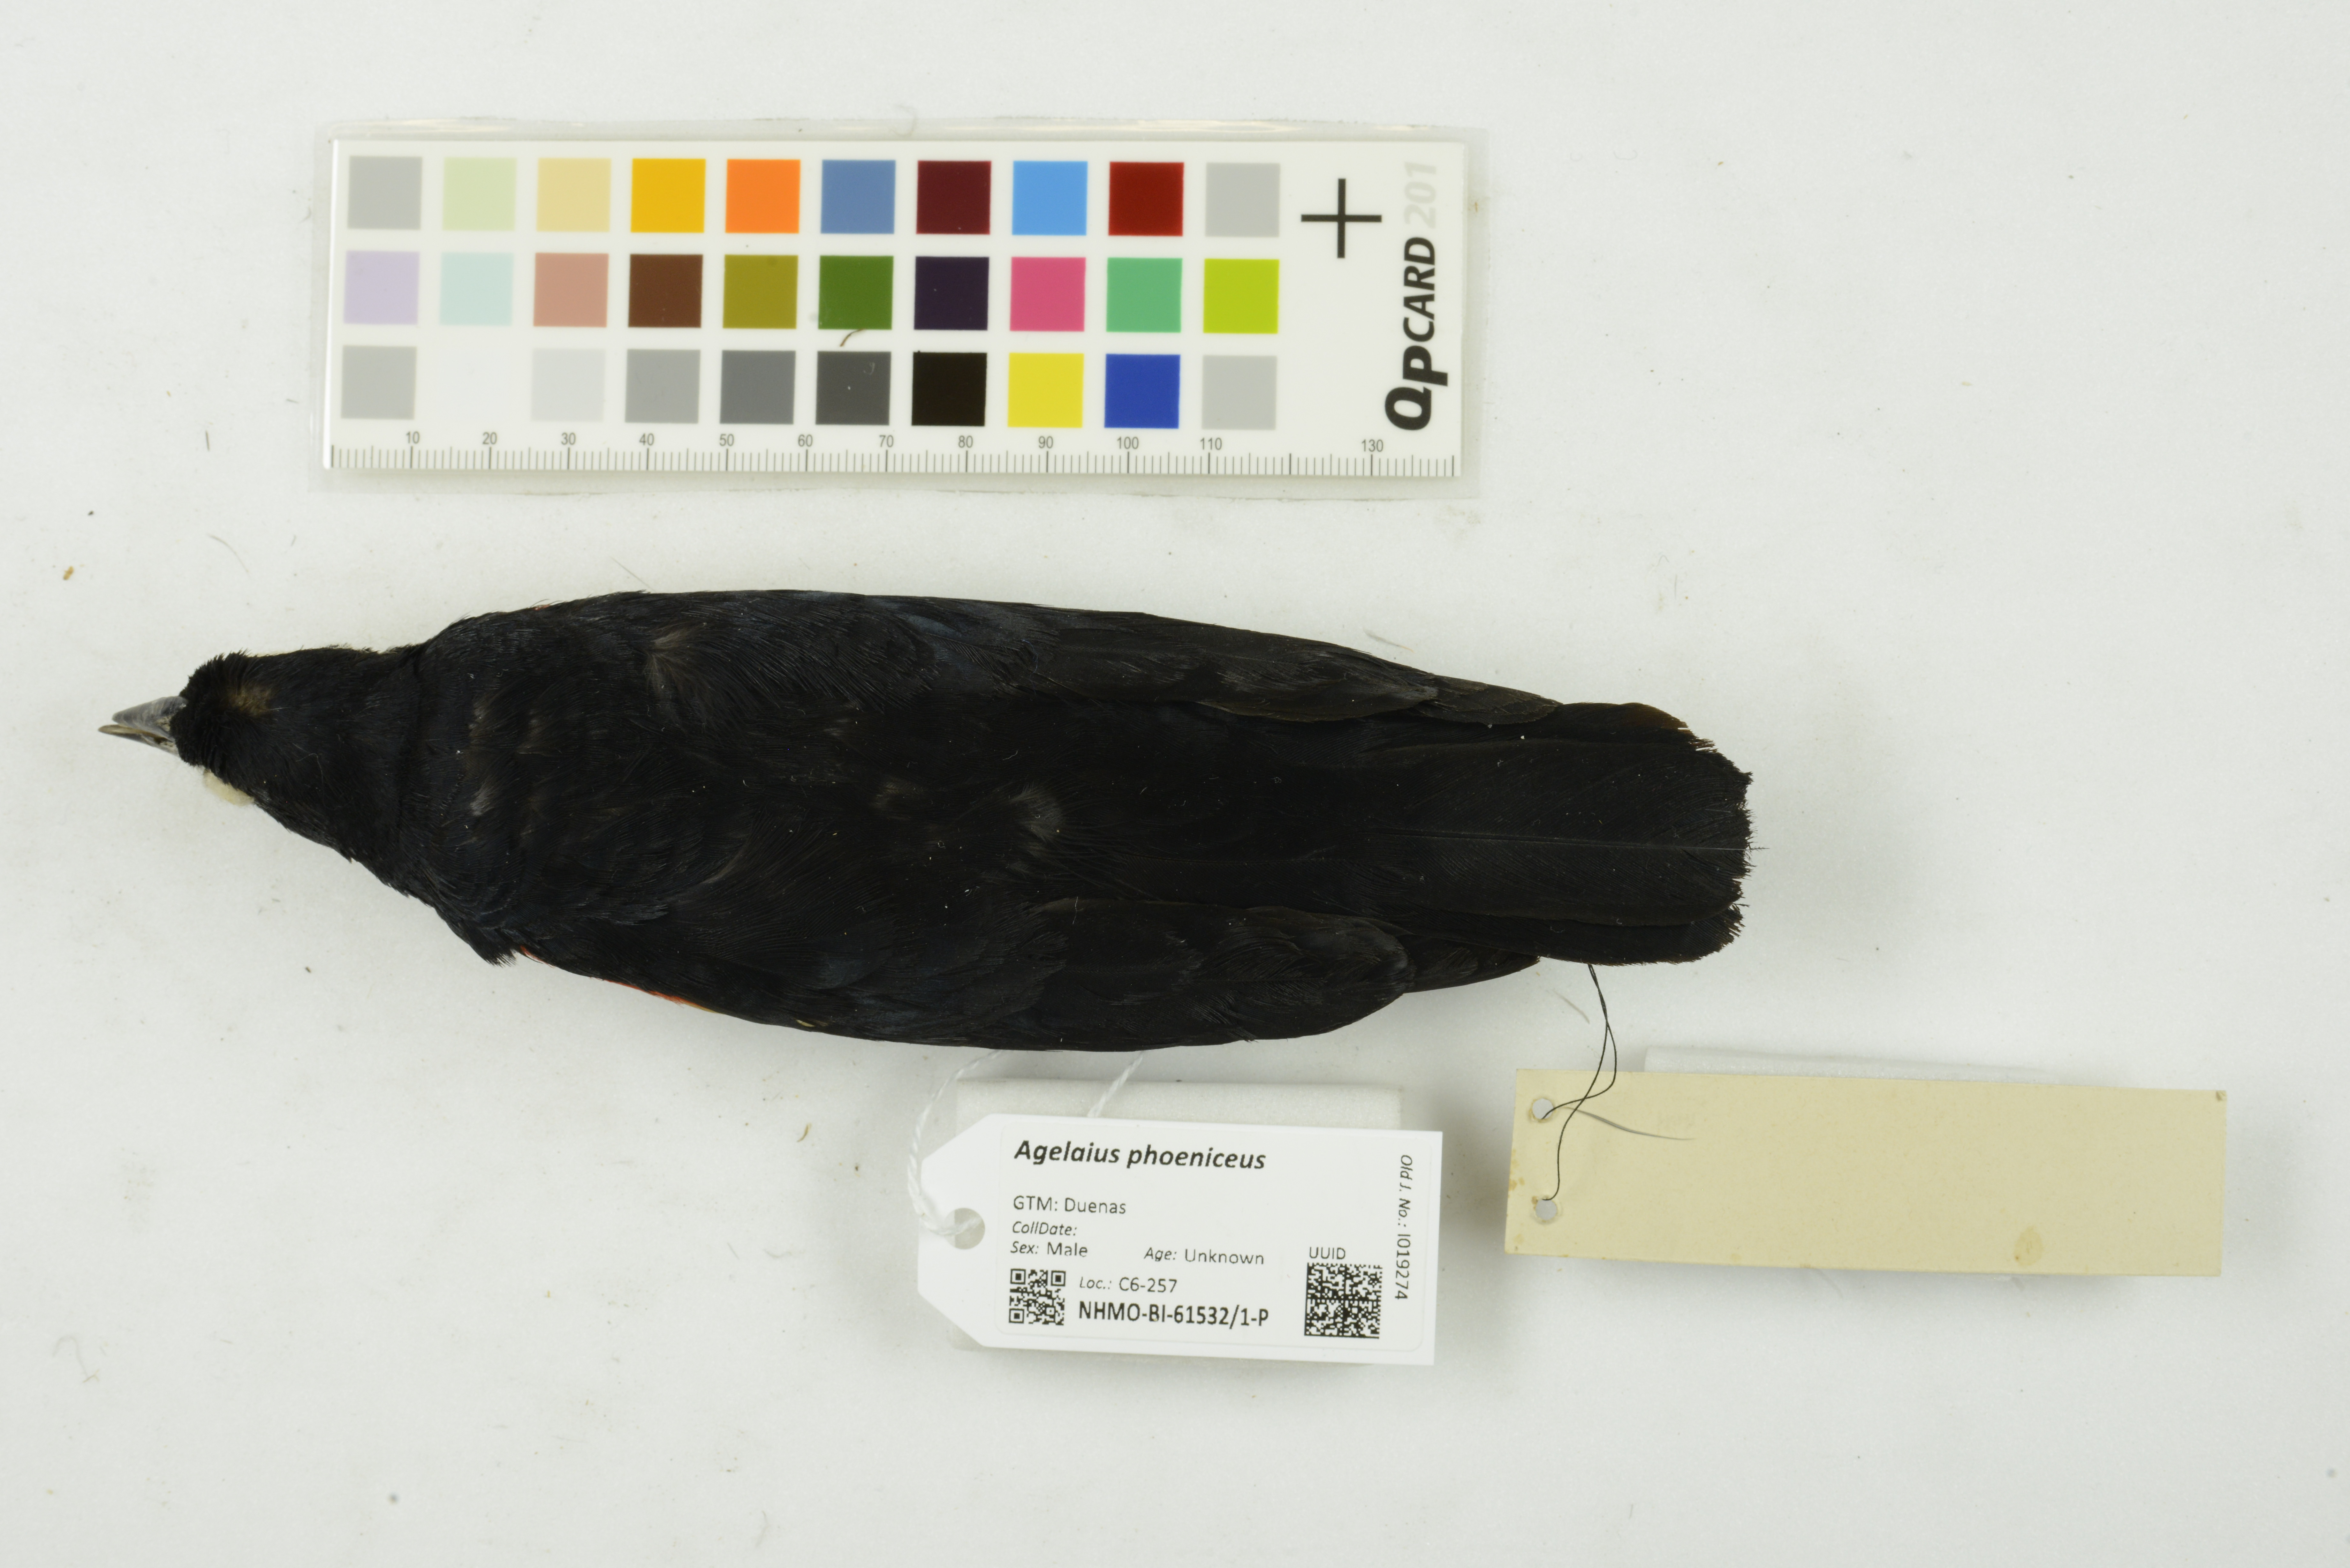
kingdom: Animalia
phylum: Chordata
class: Aves
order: Passeriformes
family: Icteridae
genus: Agelaius
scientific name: Agelaius phoeniceus
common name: Red-winged blackbird
